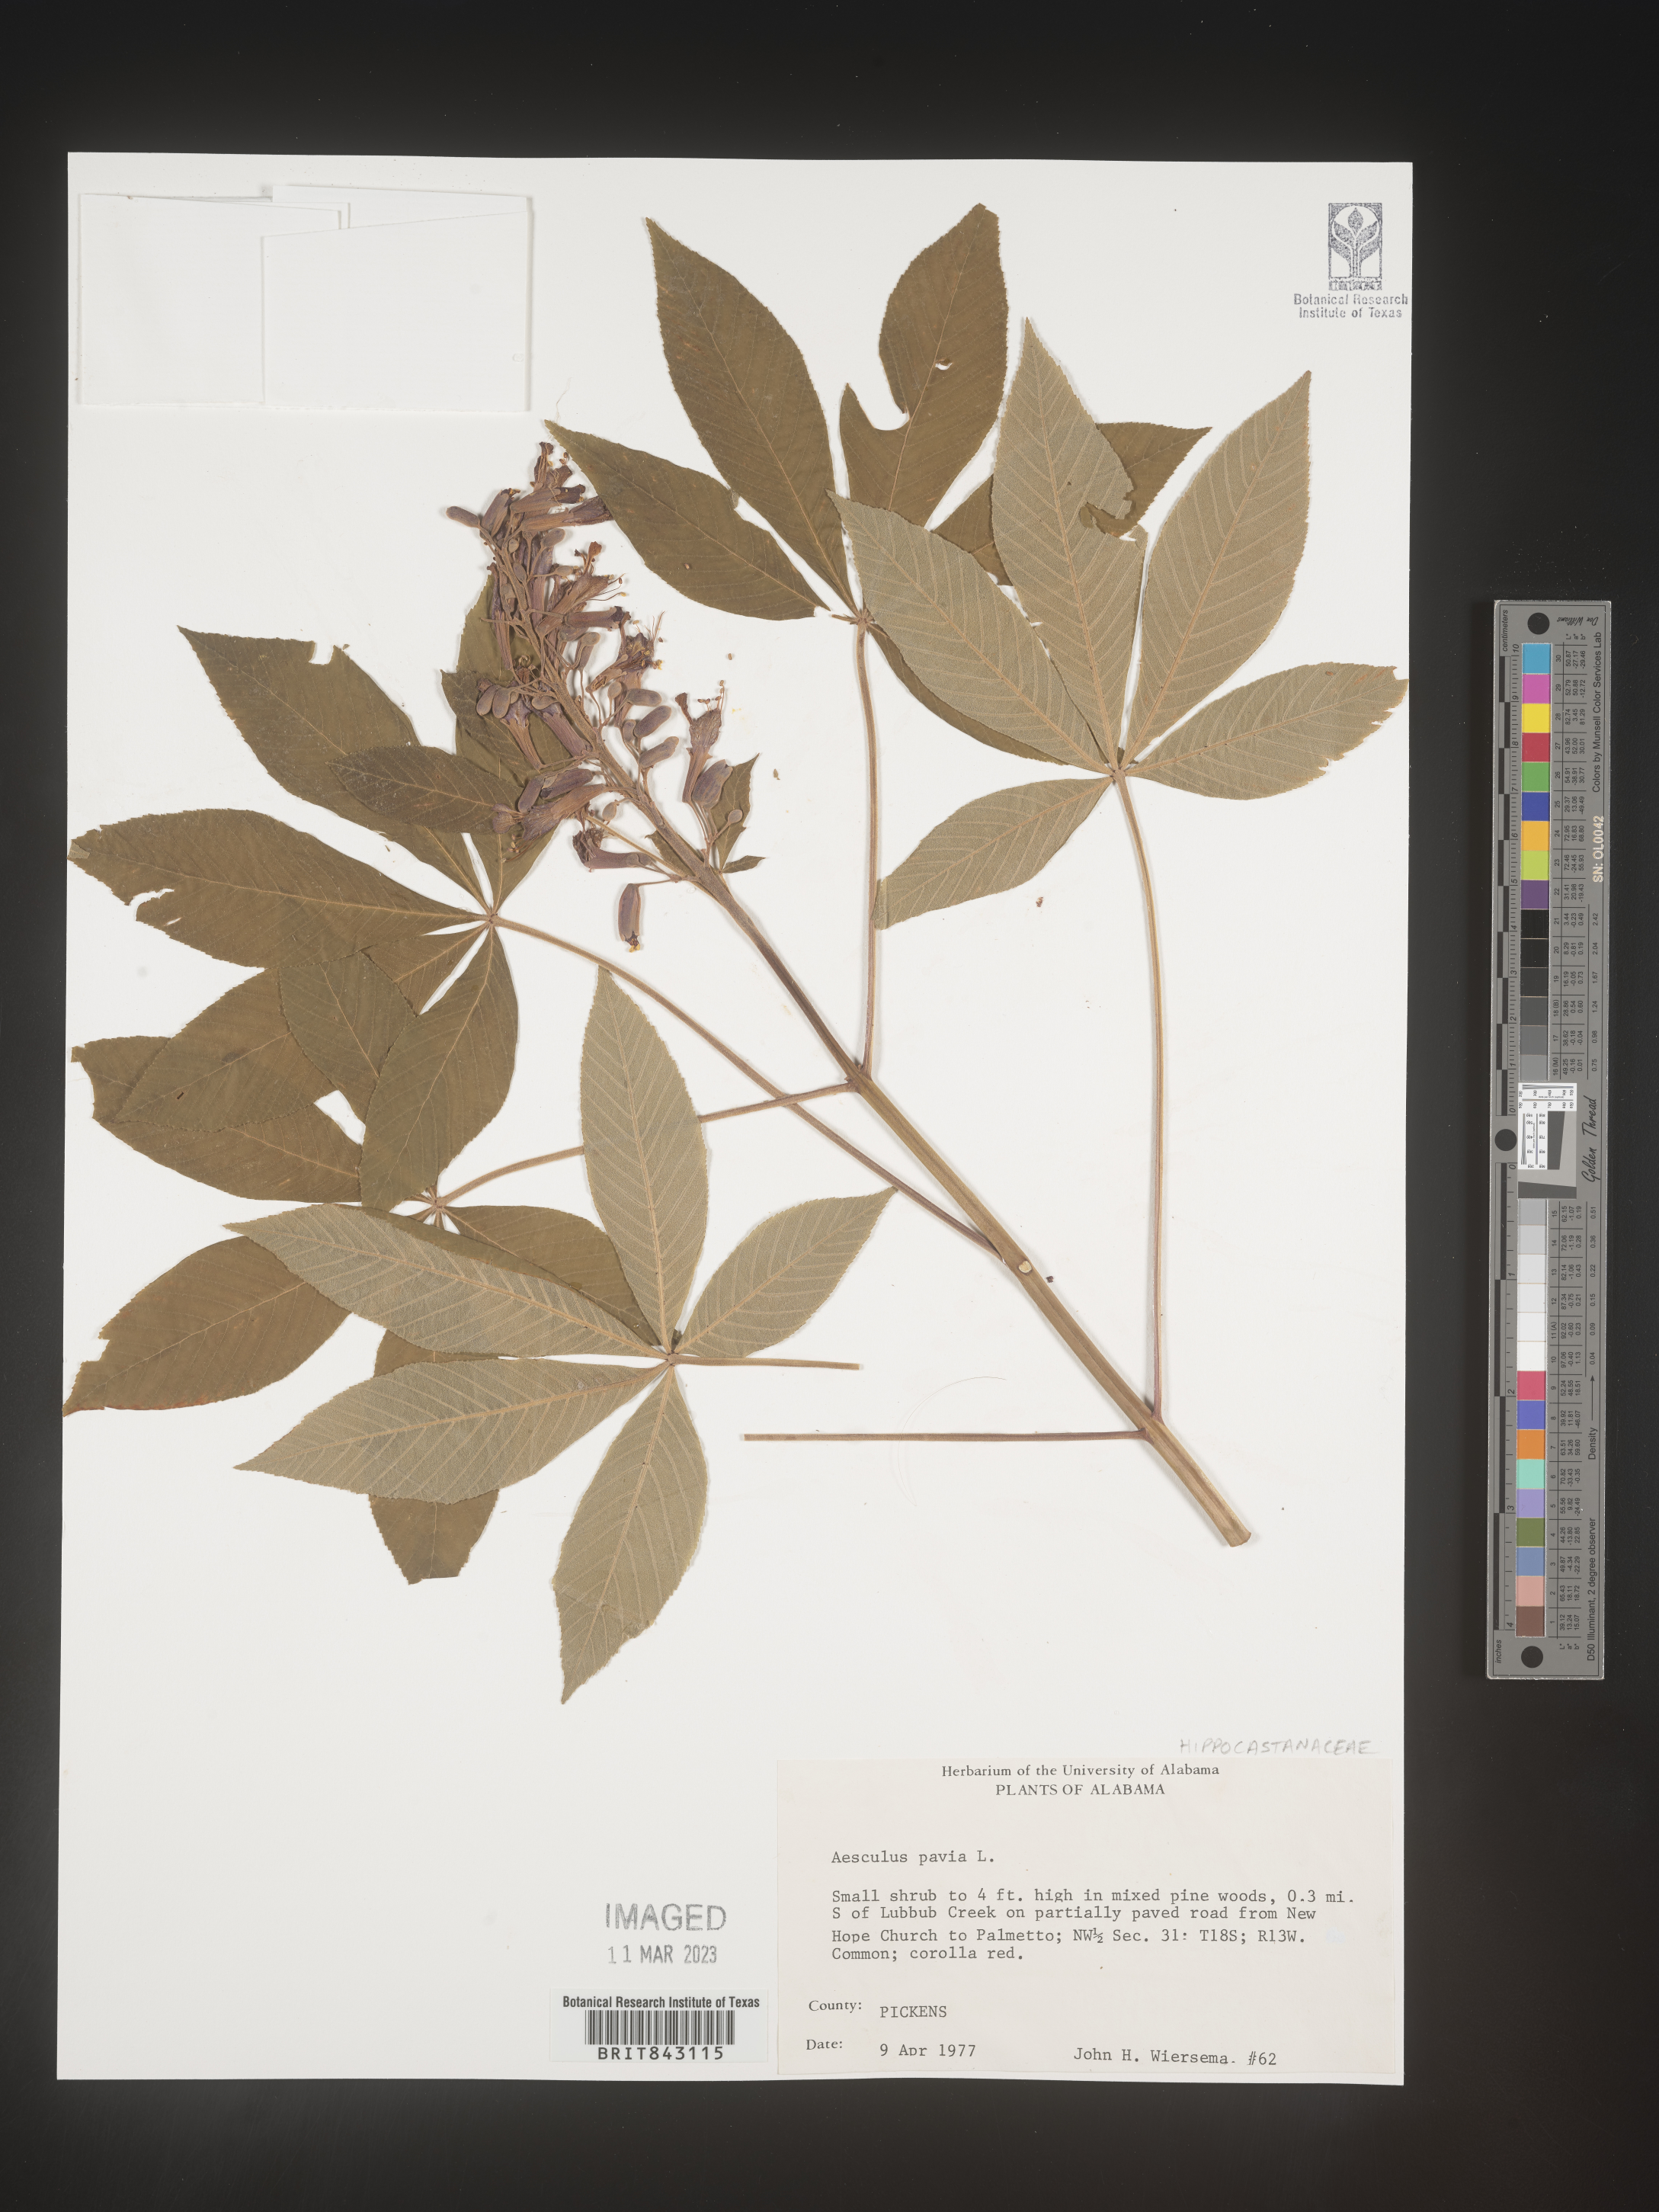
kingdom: Plantae
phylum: Tracheophyta
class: Magnoliopsida
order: Sapindales
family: Sapindaceae
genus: Aesculus
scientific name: Aesculus pavia
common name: Red buckeye
